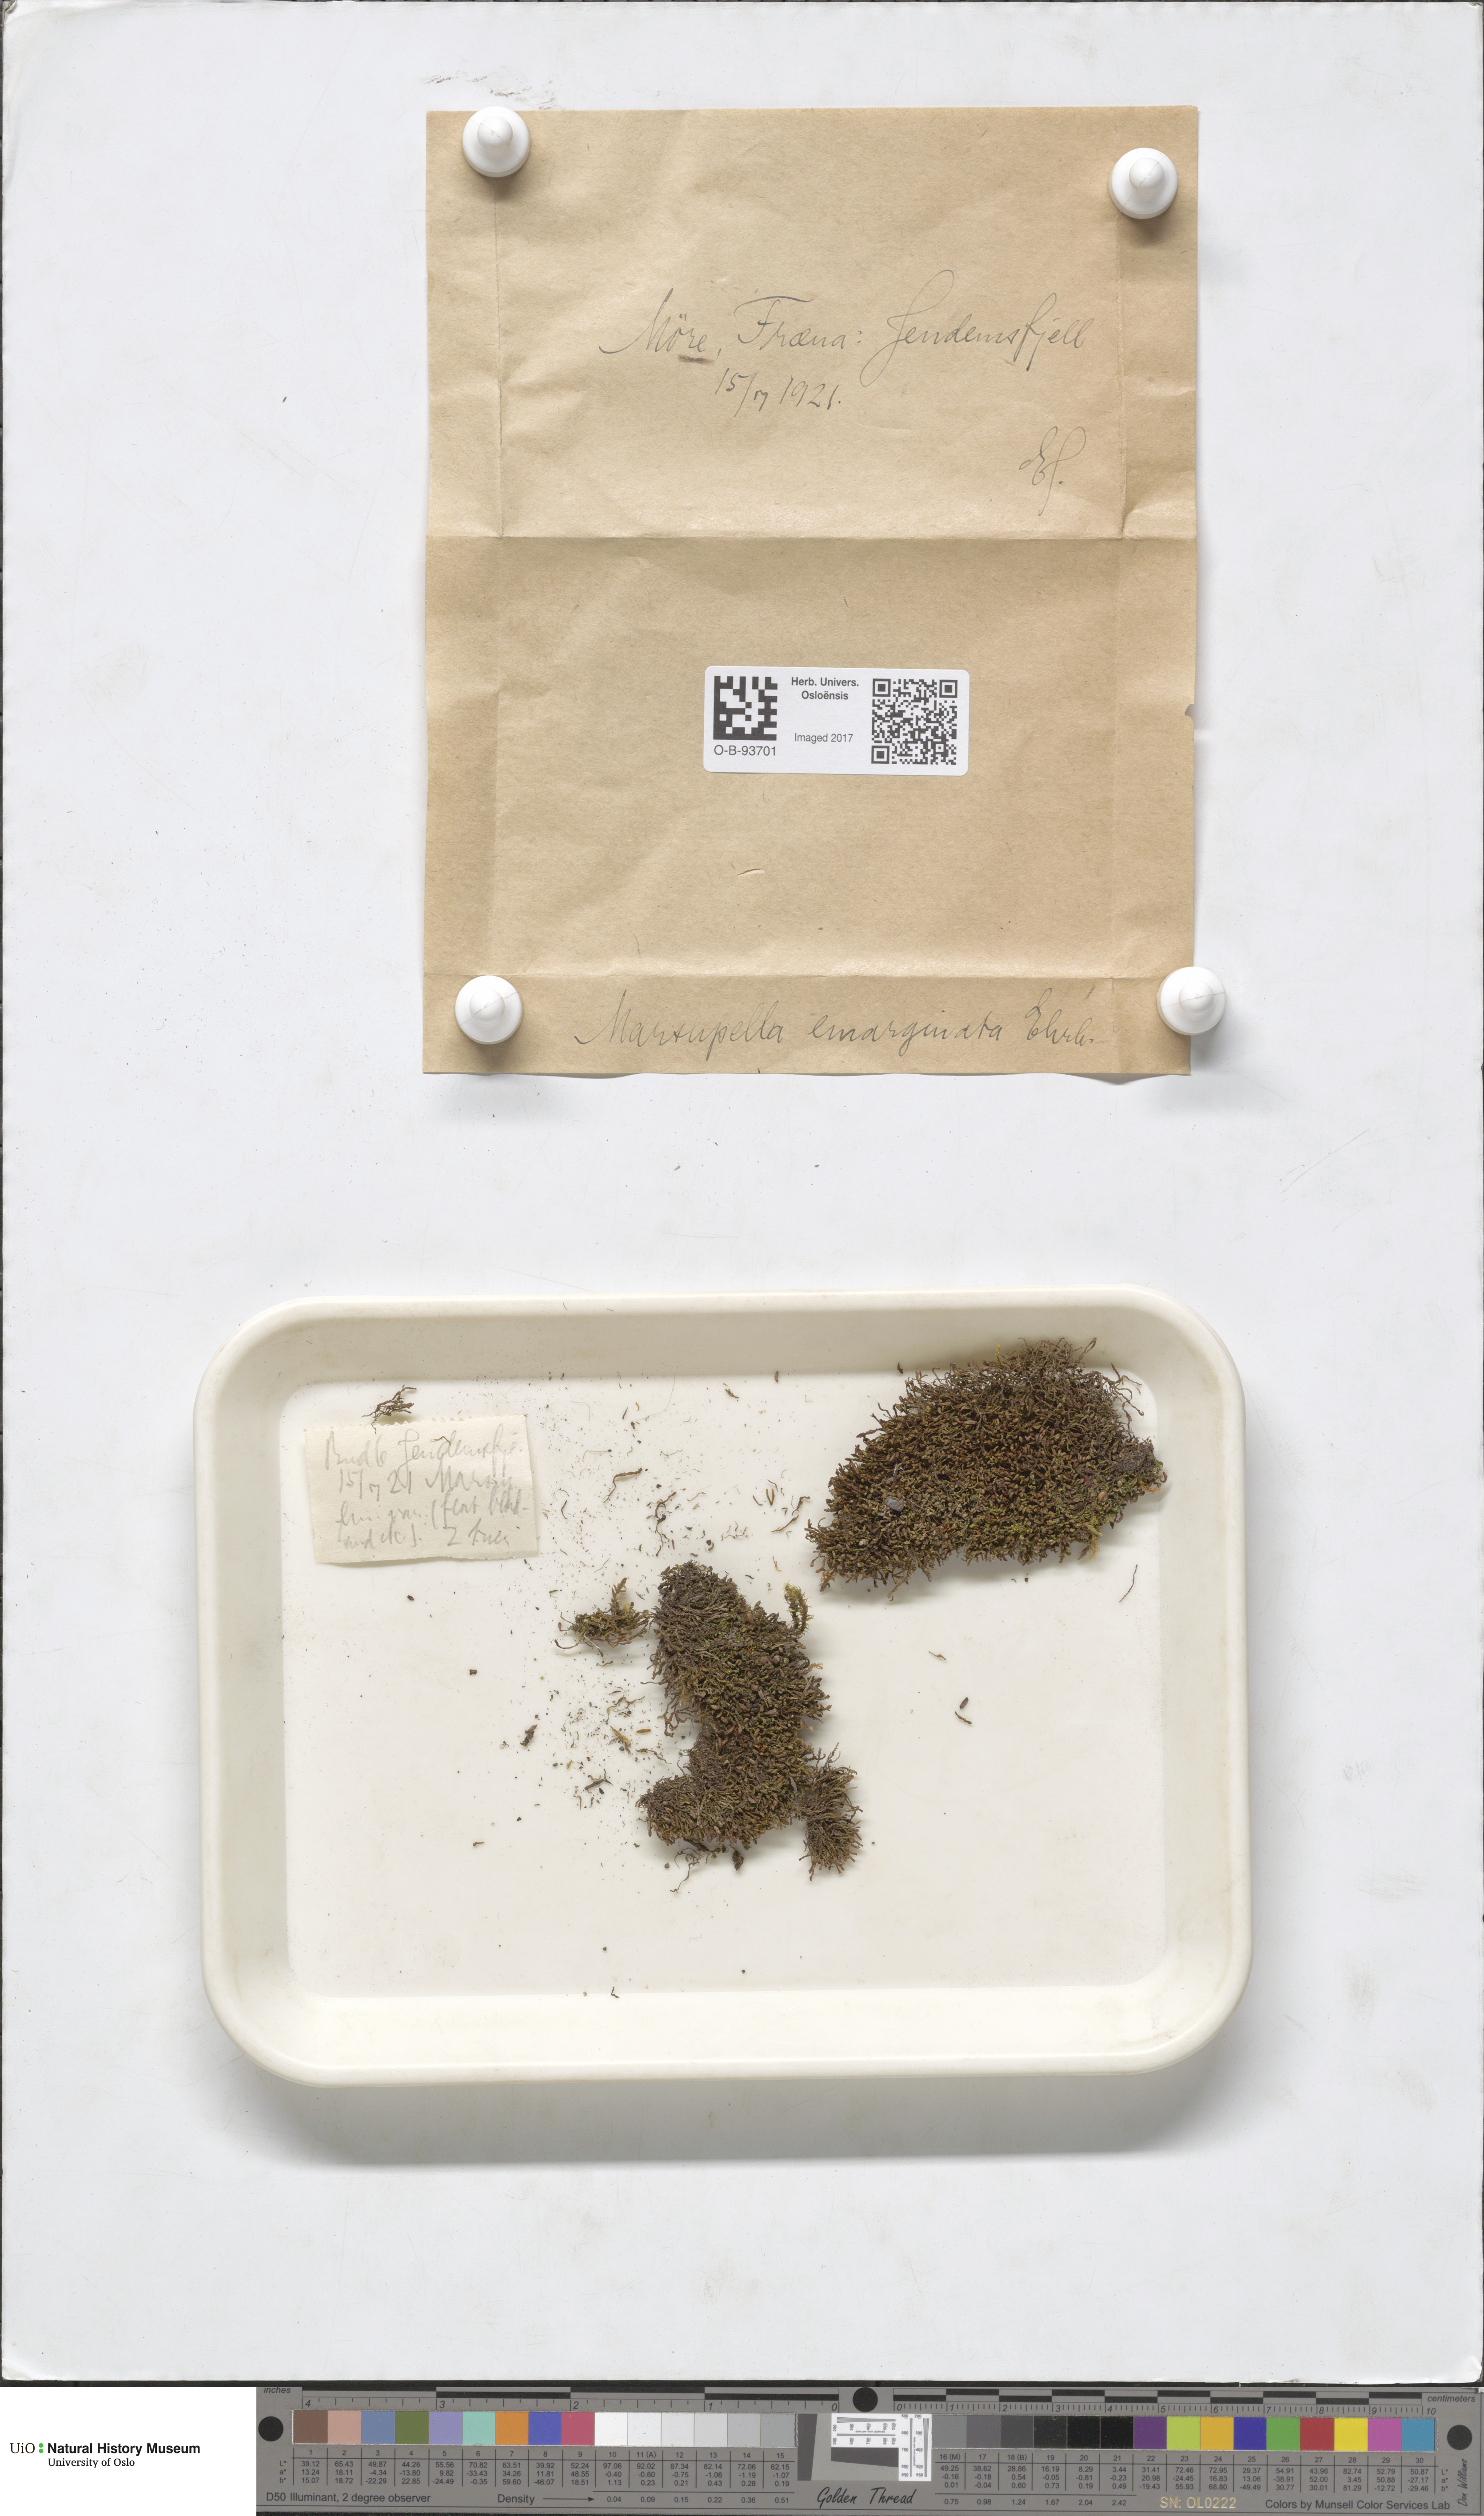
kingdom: Plantae
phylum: Marchantiophyta
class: Jungermanniopsida
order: Jungermanniales
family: Gymnomitriaceae
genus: Marsupella
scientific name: Marsupella emarginata
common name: Notched rustwort
